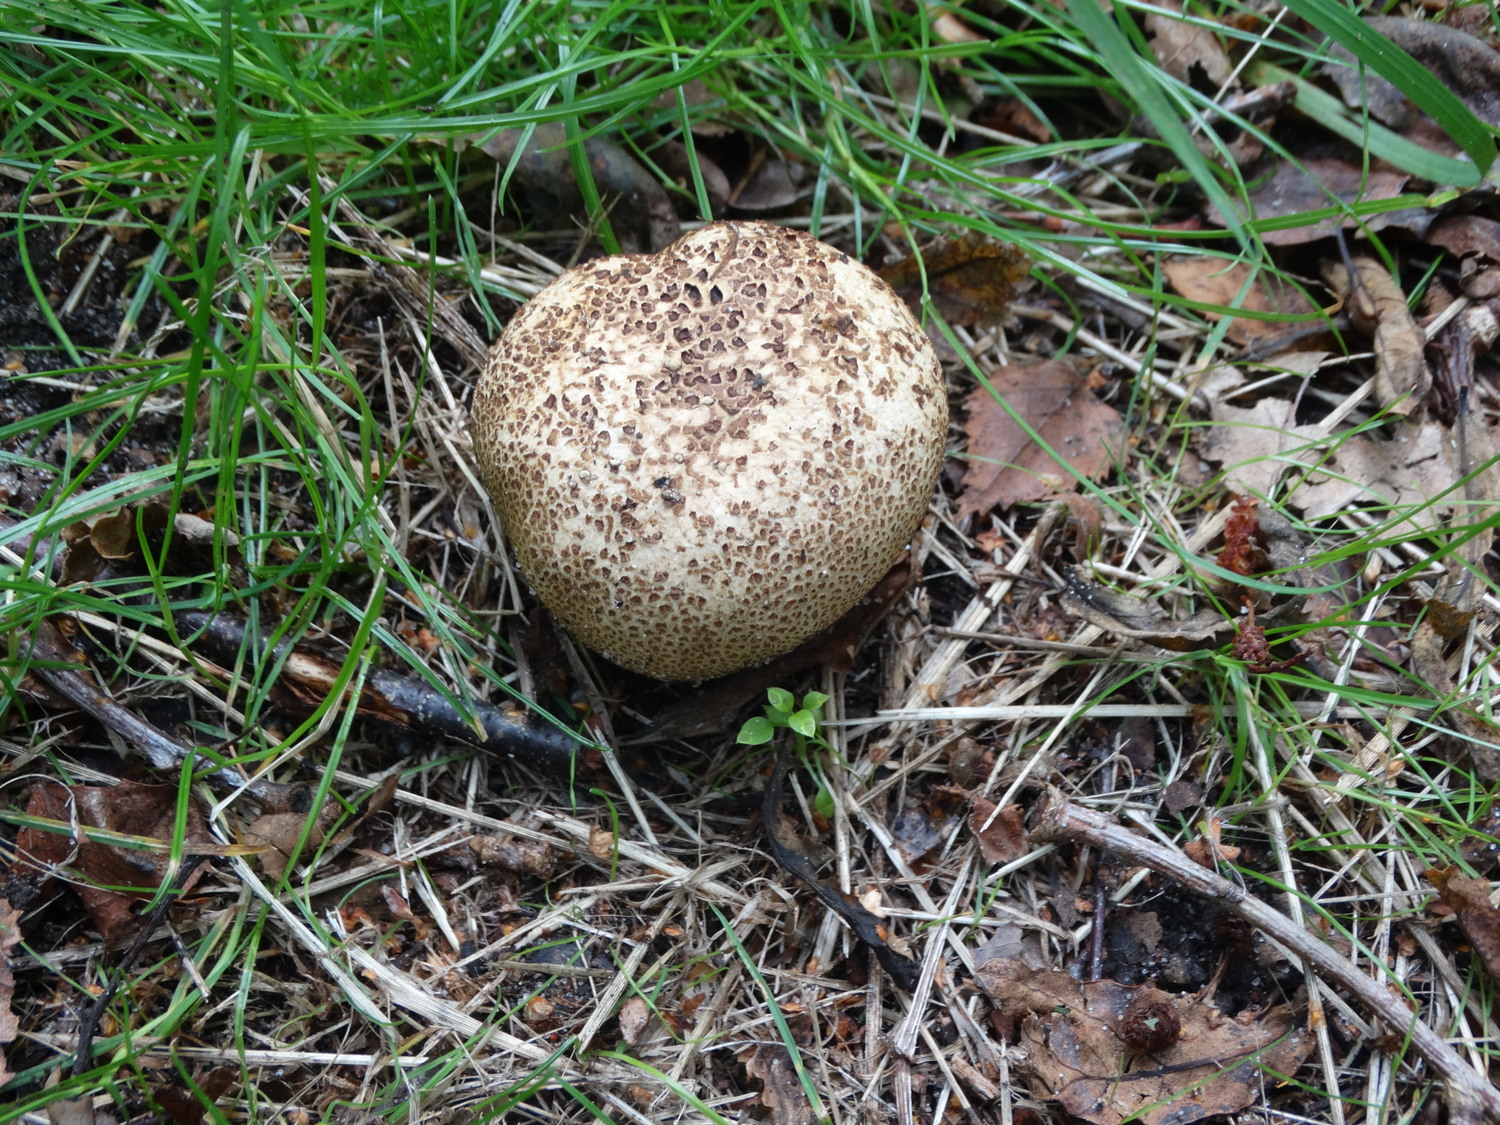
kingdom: Fungi
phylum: Basidiomycota
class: Agaricomycetes
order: Boletales
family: Sclerodermataceae
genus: Scleroderma
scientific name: Scleroderma verrucosum
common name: stilket bruskbold
